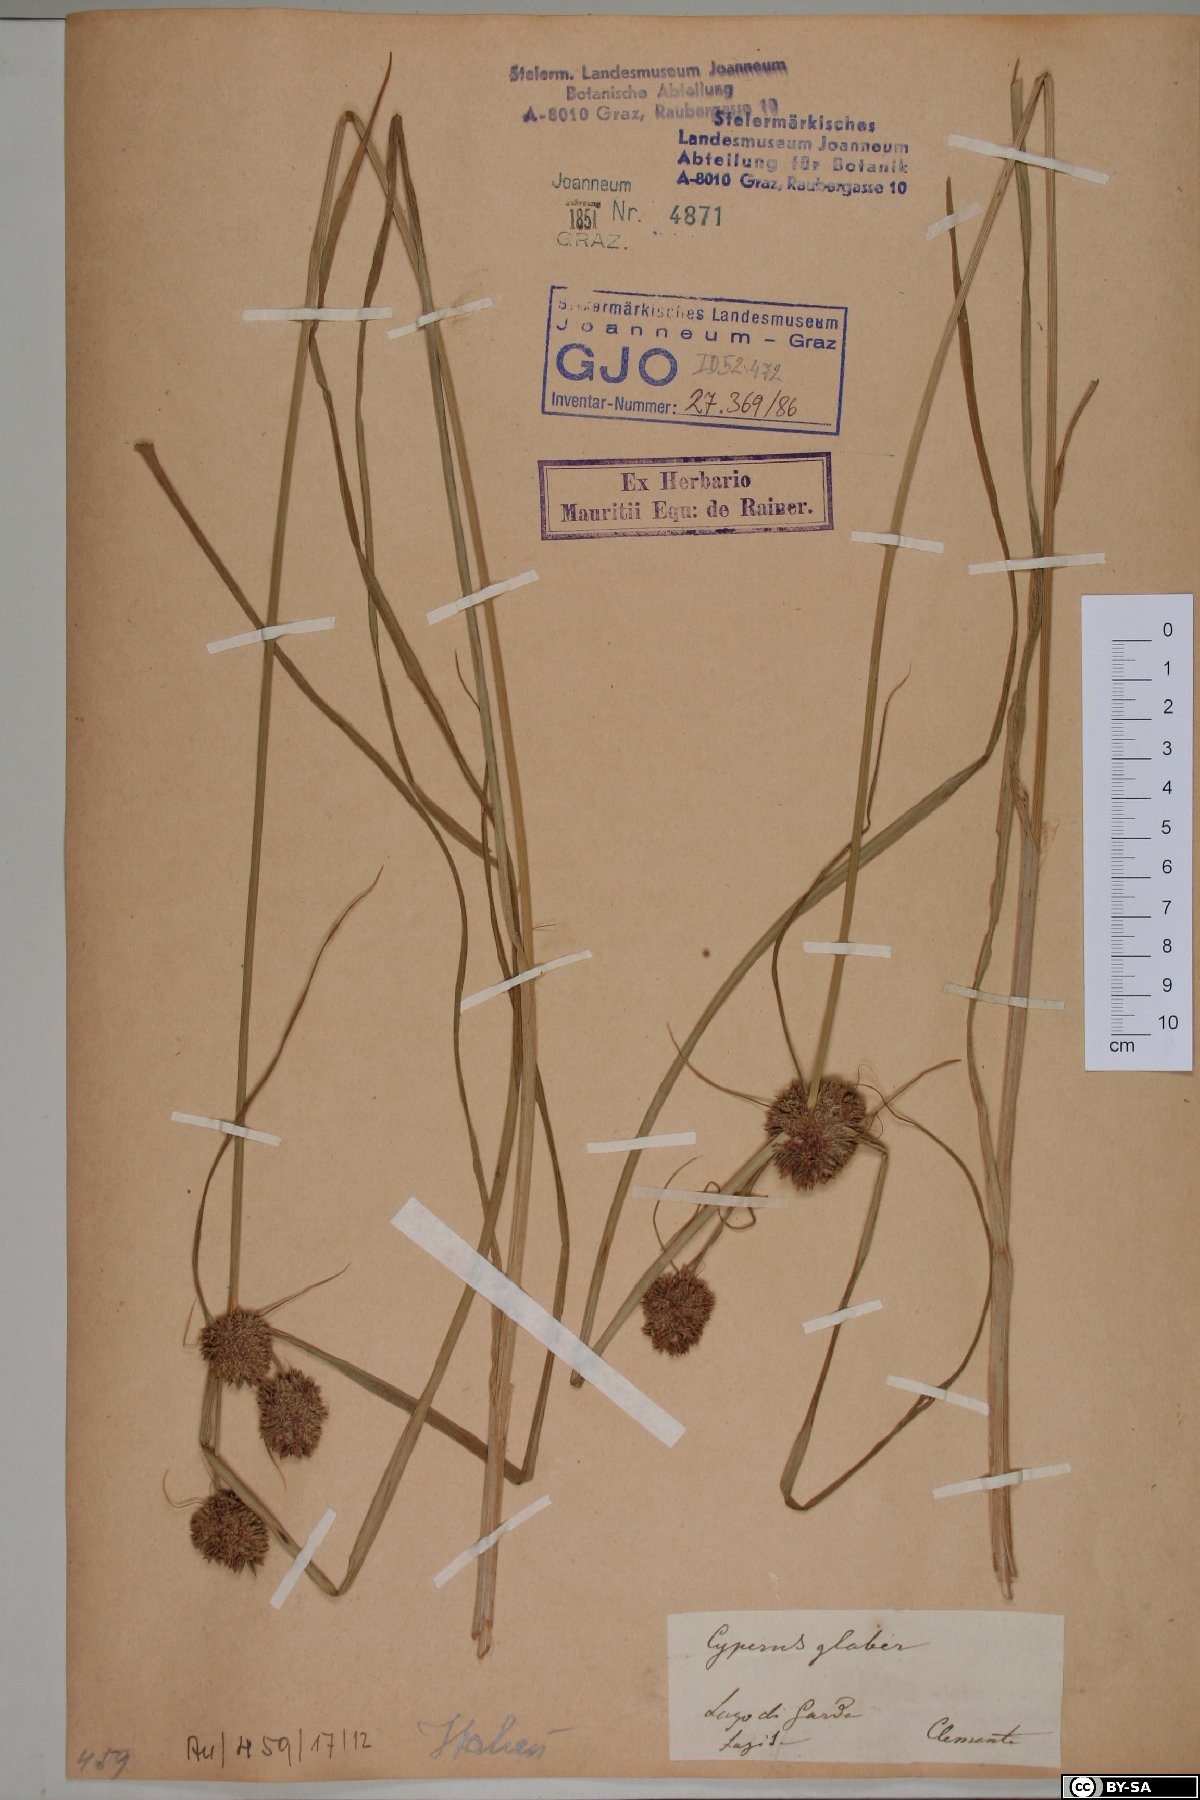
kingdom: Plantae
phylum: Tracheophyta
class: Liliopsida
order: Poales
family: Cyperaceae
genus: Cyperus
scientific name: Cyperus glaber
